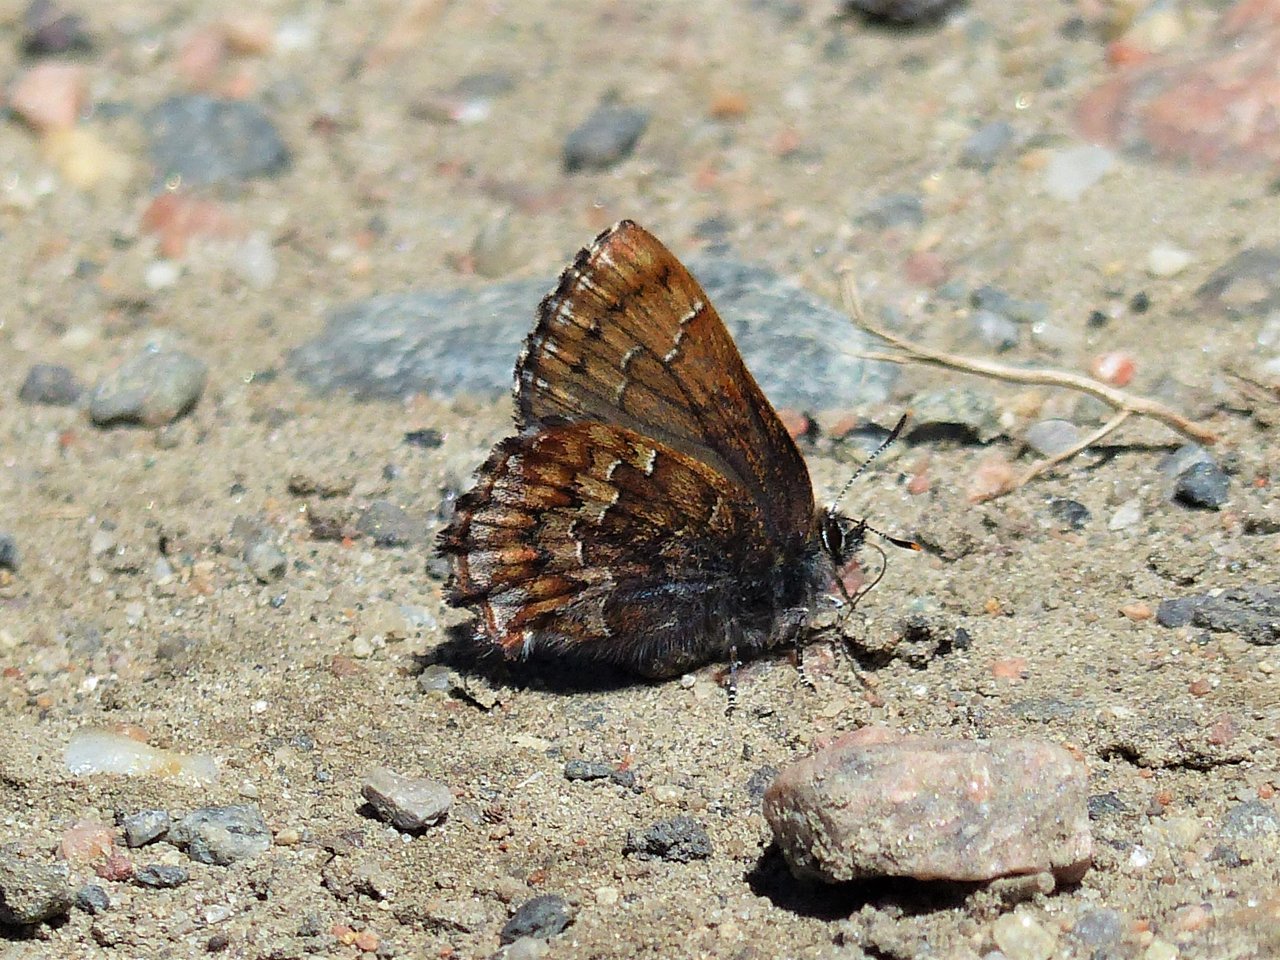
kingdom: Animalia
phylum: Arthropoda
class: Insecta
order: Lepidoptera
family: Lycaenidae
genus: Incisalia
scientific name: Incisalia niphon
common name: Eastern Pine Elfin
